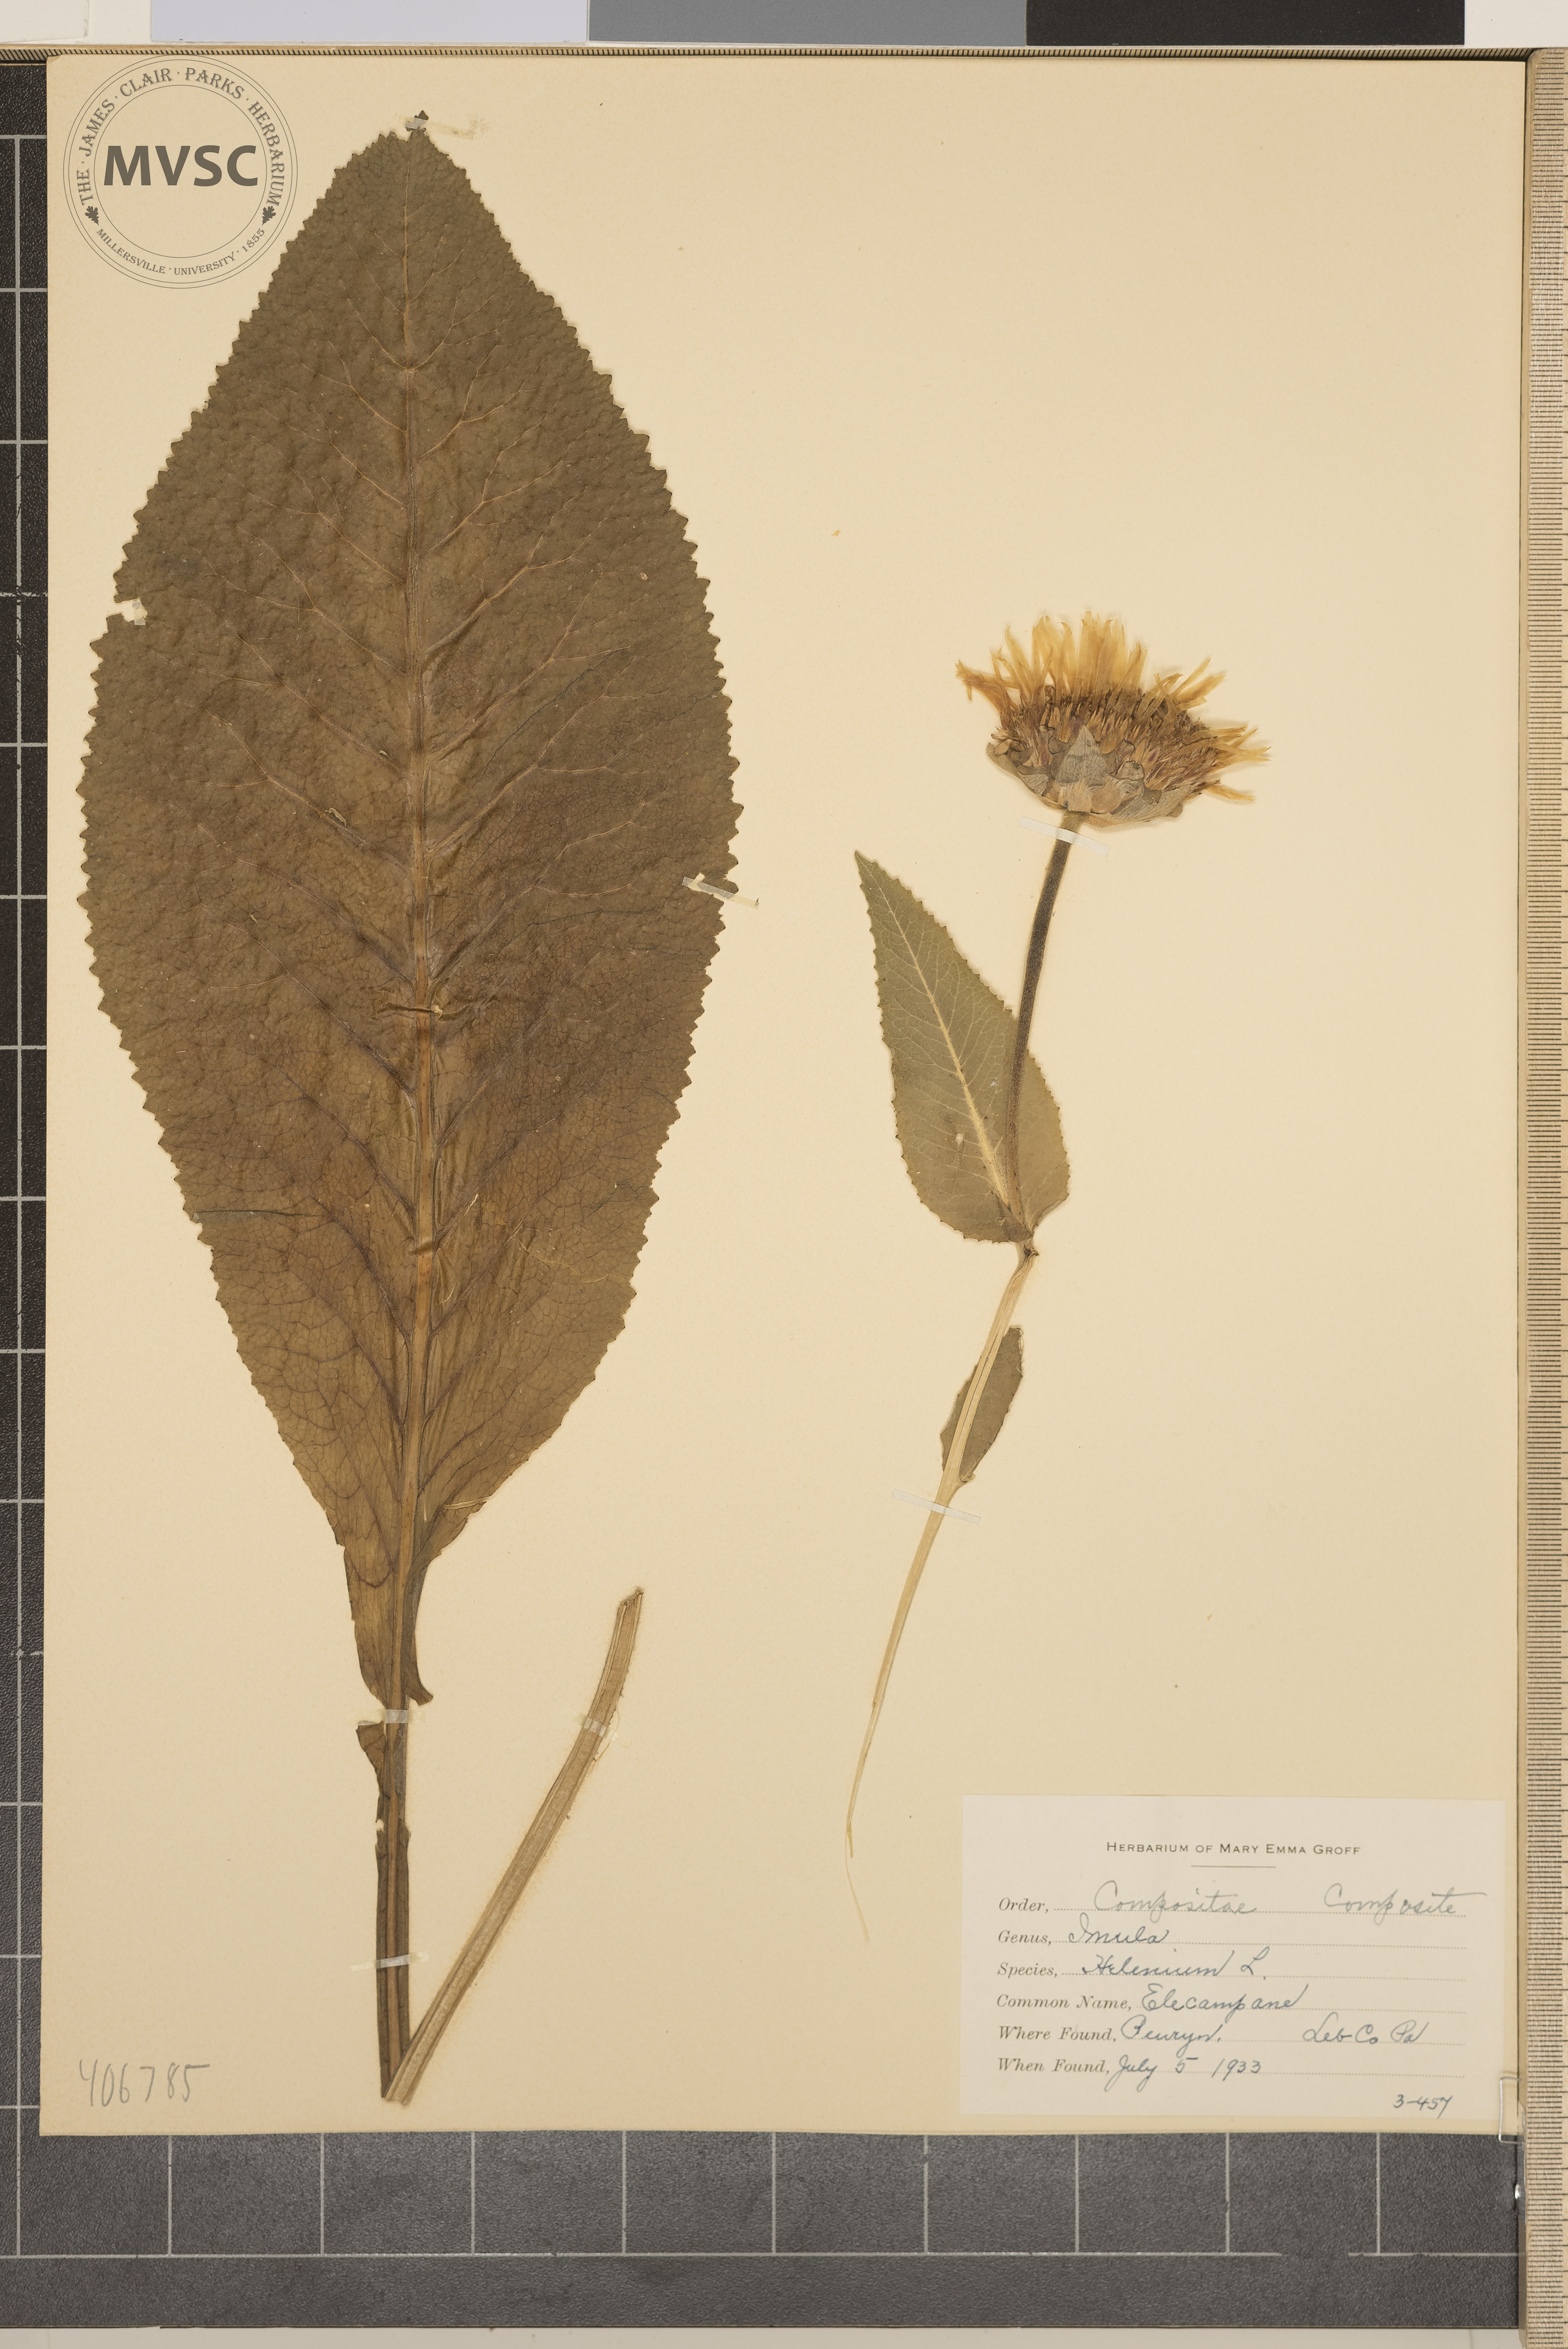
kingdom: Plantae
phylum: Tracheophyta
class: Magnoliopsida
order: Asterales
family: Asteraceae
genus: Inula
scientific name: Inula helenium
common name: Elecampane
